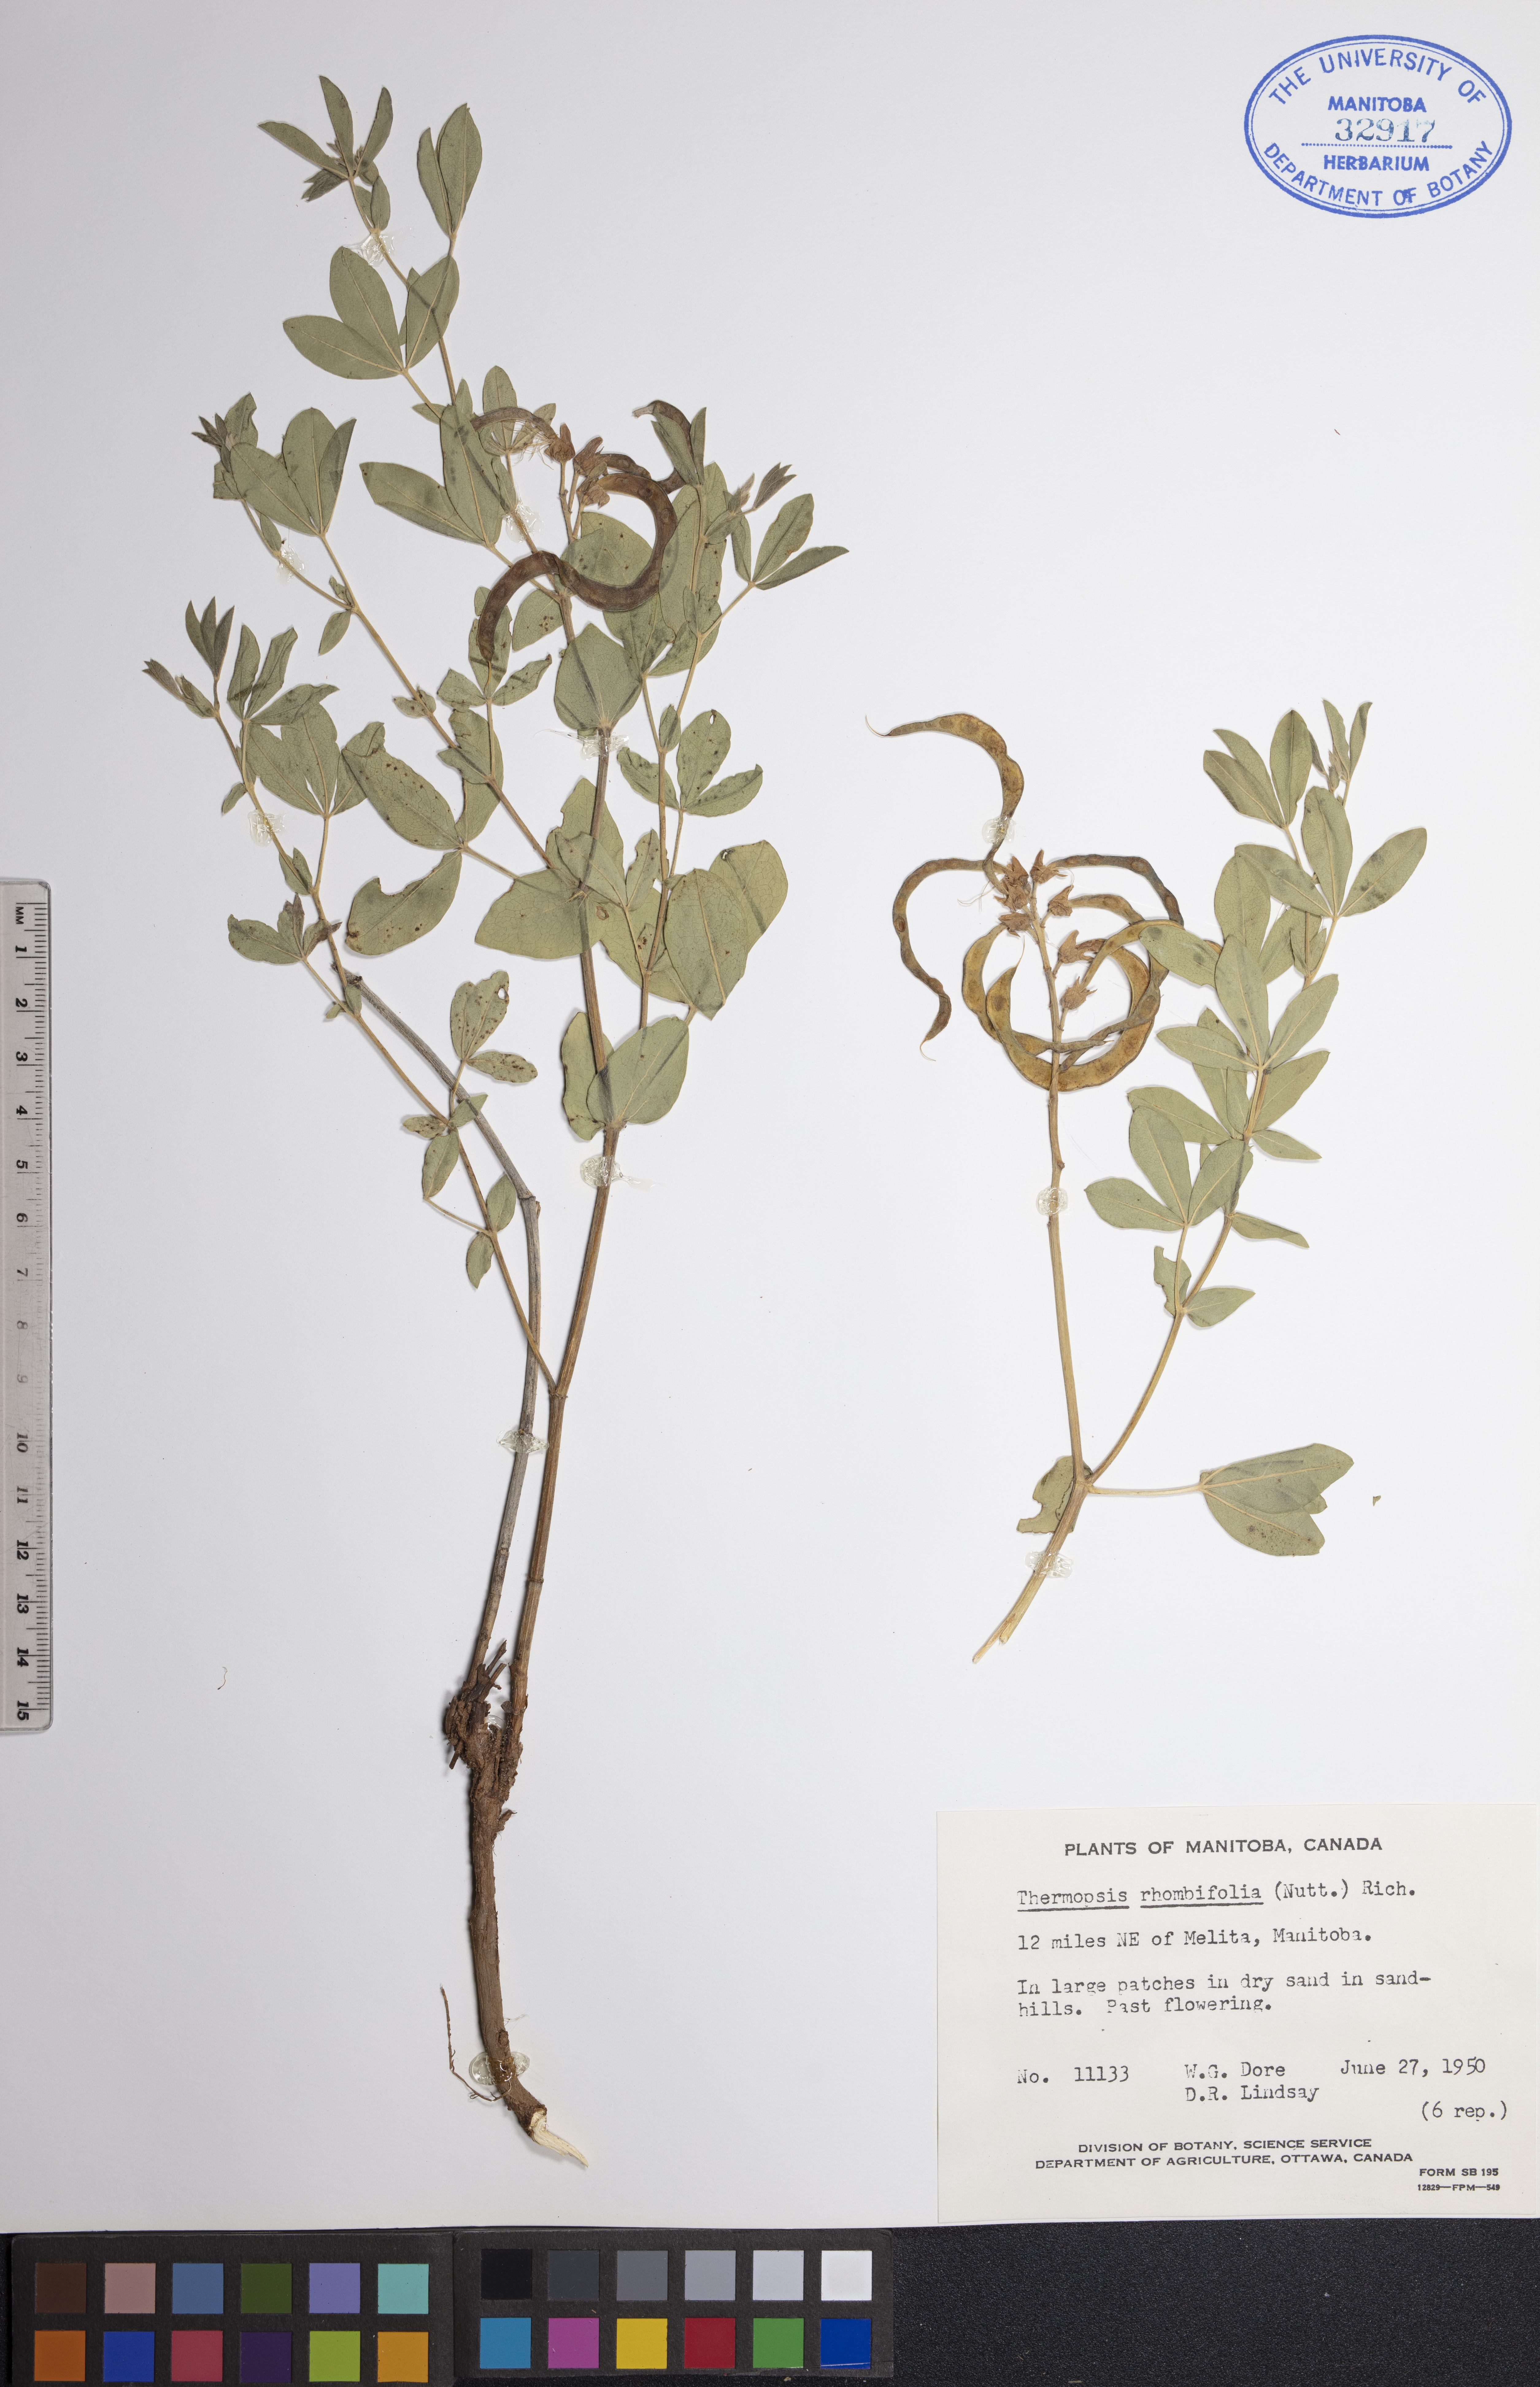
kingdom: Plantae
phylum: Tracheophyta
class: Magnoliopsida
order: Fabales
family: Fabaceae
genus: Thermopsis
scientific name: Thermopsis rhombifolia
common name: Circle-pod-pea
